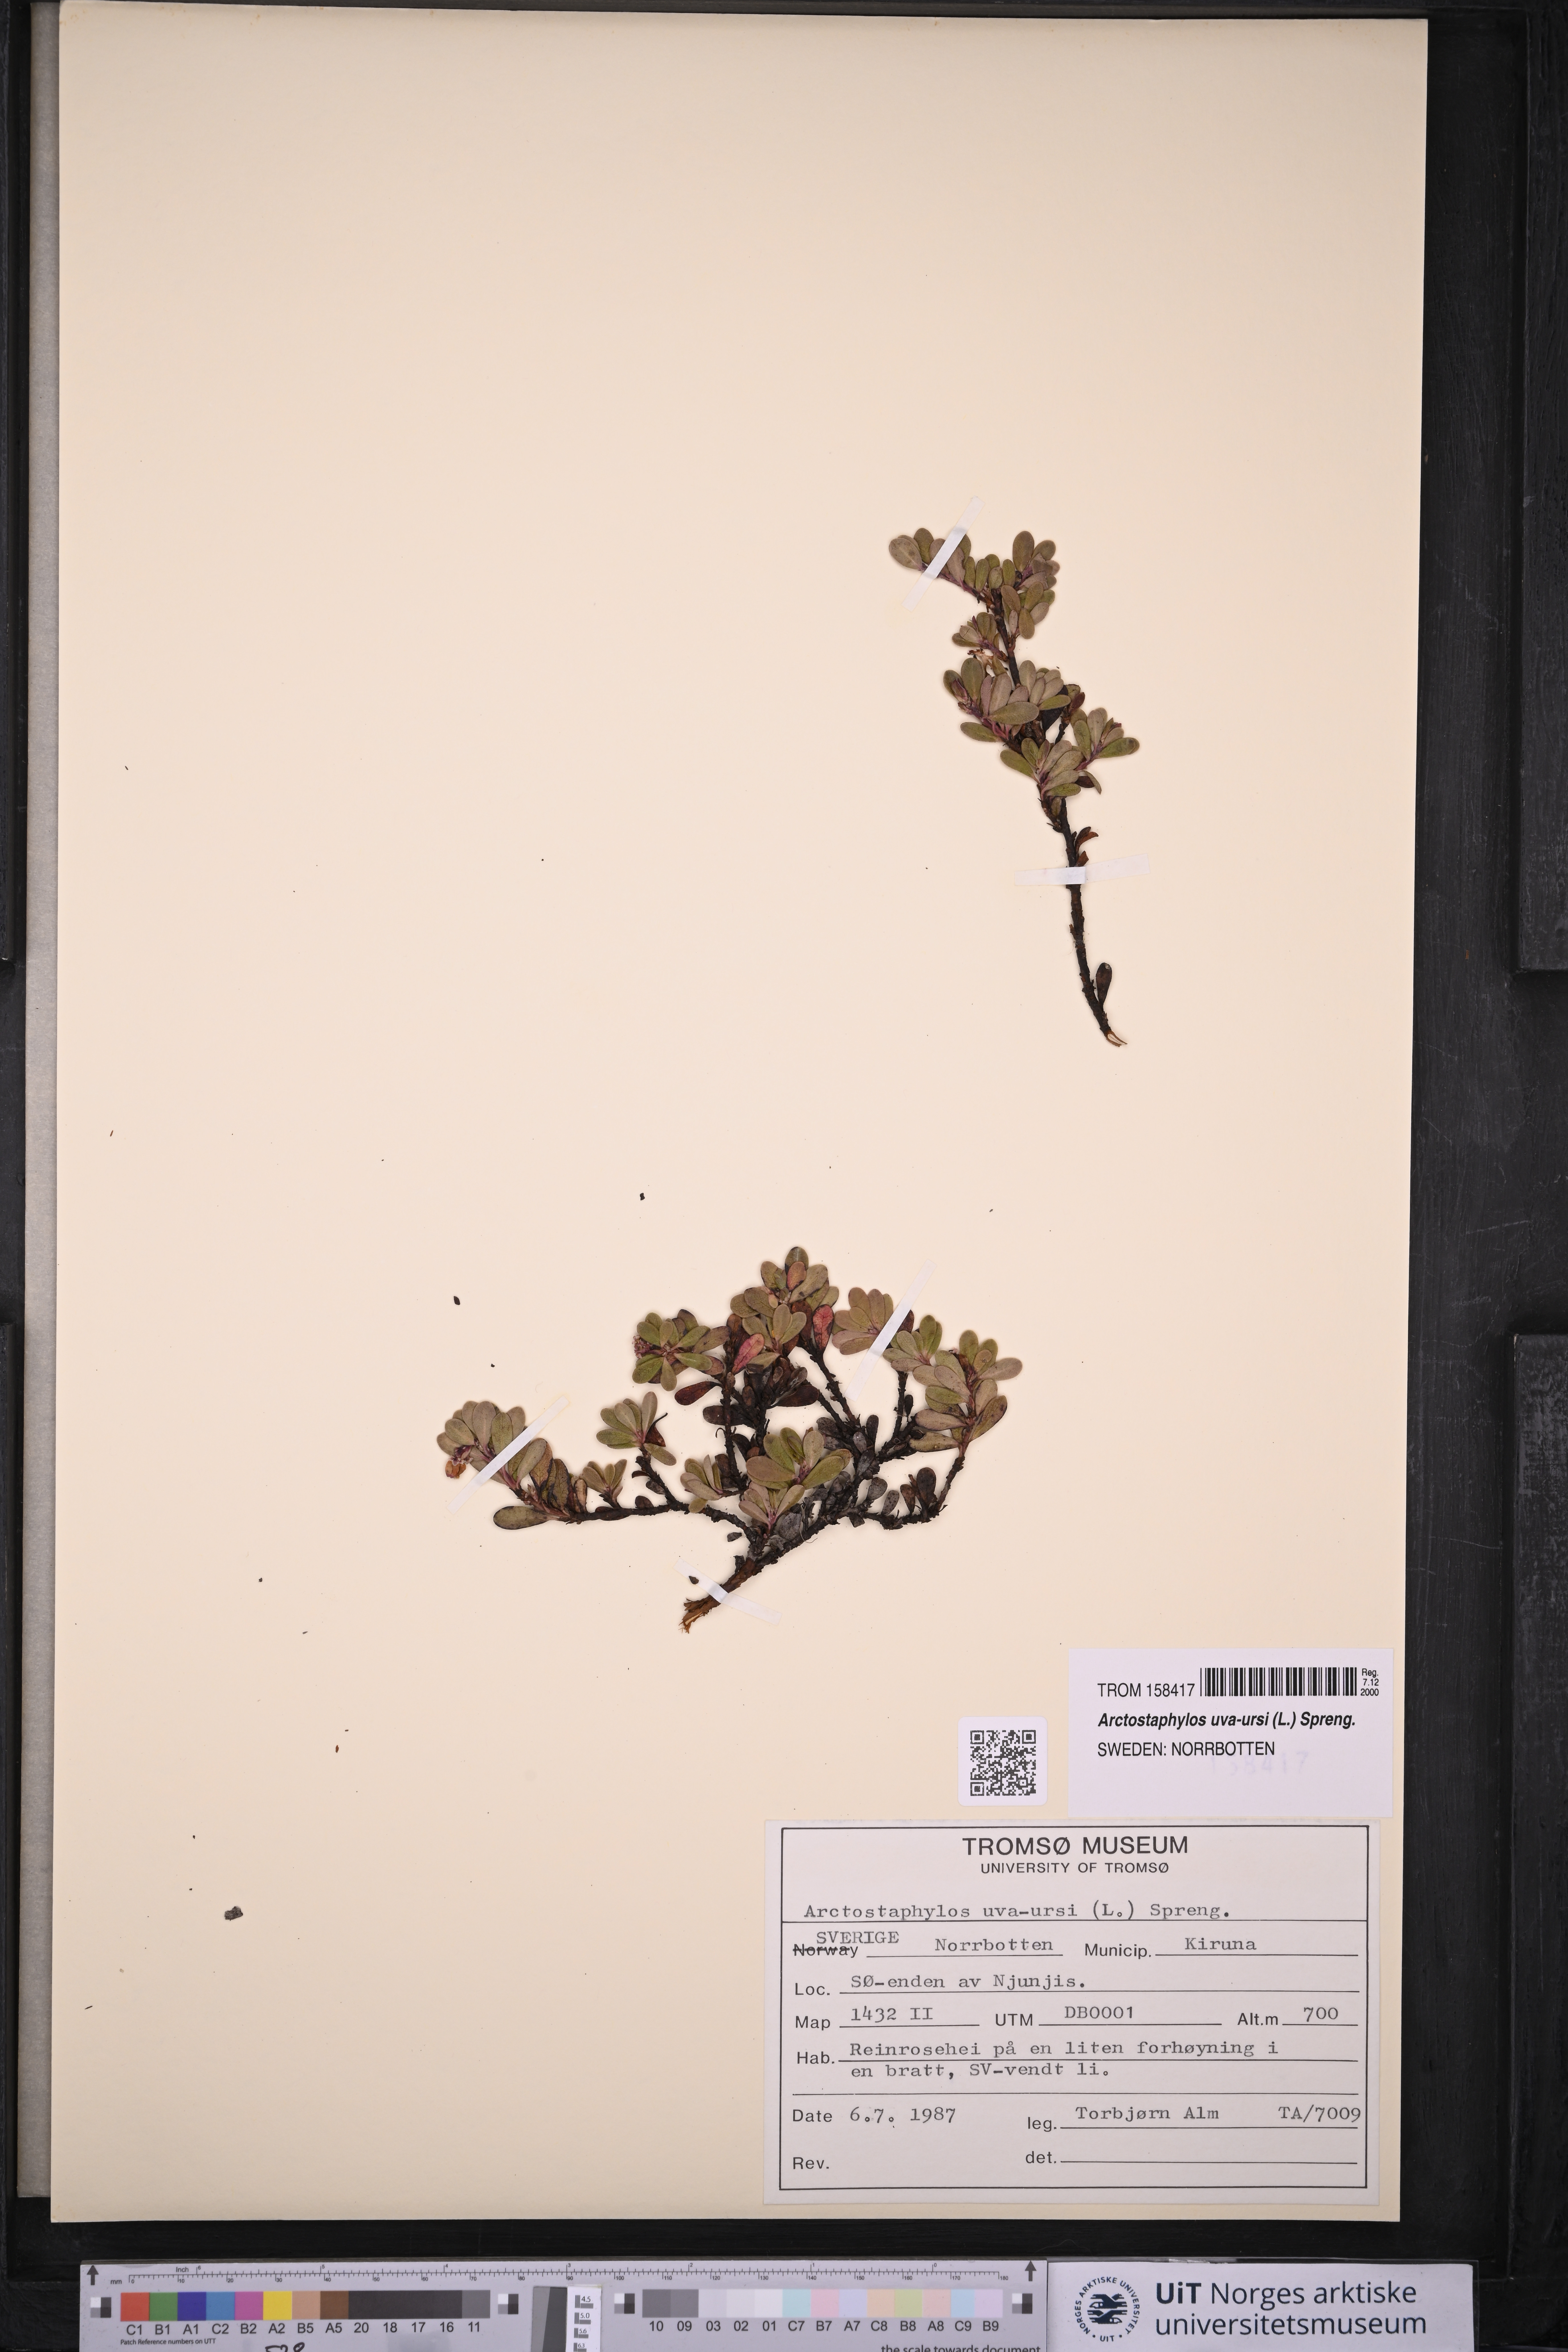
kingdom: Plantae
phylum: Tracheophyta
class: Magnoliopsida
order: Ericales
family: Ericaceae
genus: Arctostaphylos
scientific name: Arctostaphylos uva-ursi
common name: Bearberry
